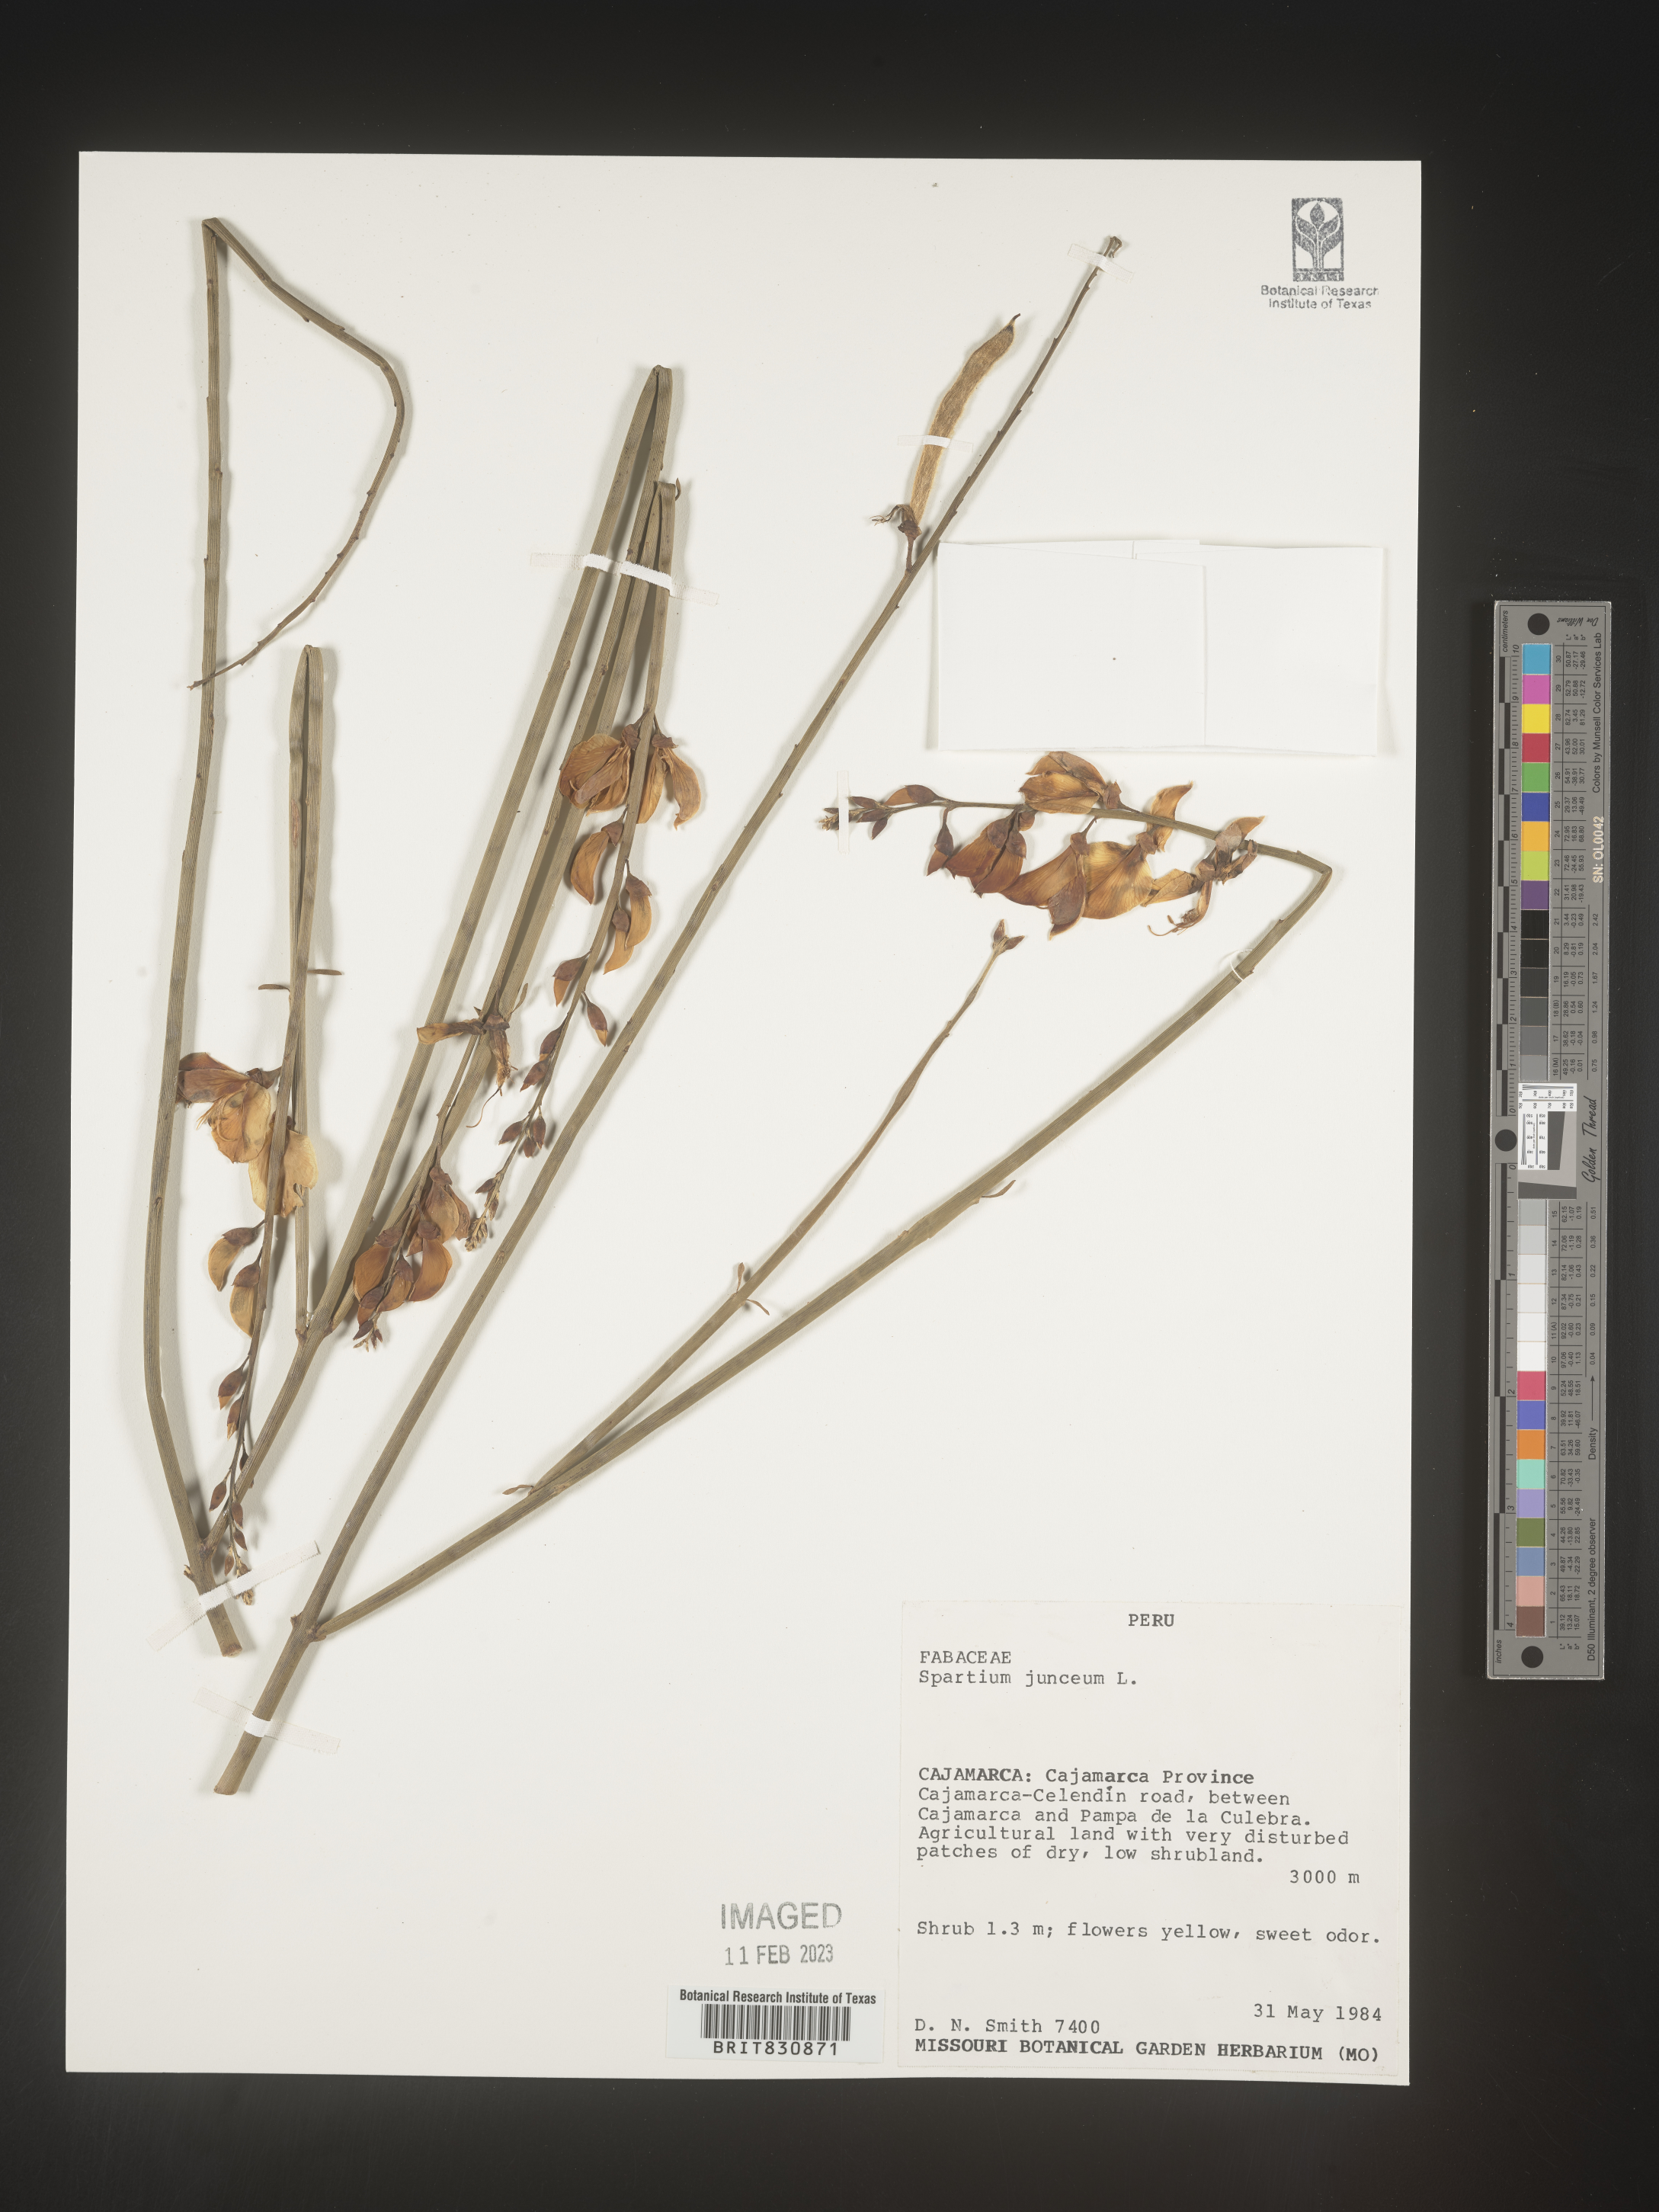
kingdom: Plantae
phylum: Tracheophyta
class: Magnoliopsida
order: Fabales
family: Fabaceae
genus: Spartium
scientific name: Spartium
